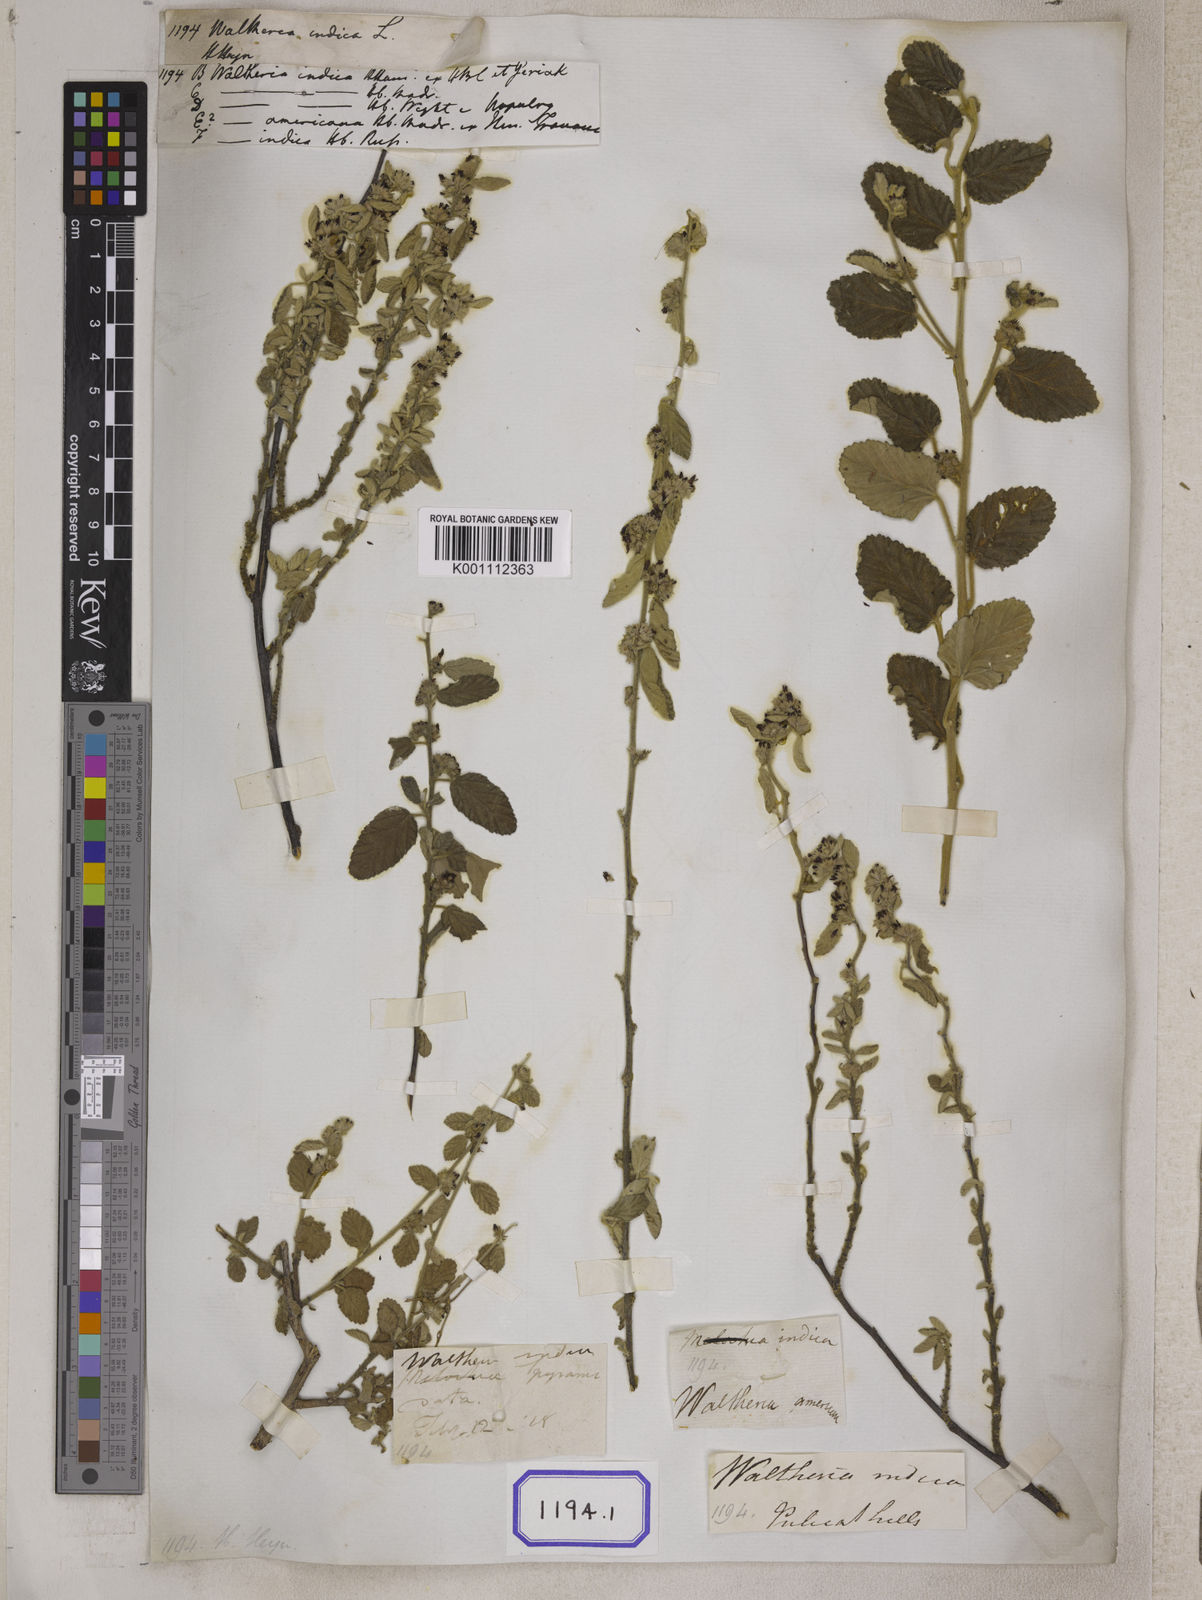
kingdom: Plantae
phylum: Tracheophyta
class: Magnoliopsida
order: Malvales
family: Malvaceae
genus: Waltheria
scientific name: Waltheria indica
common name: Leather-coat
